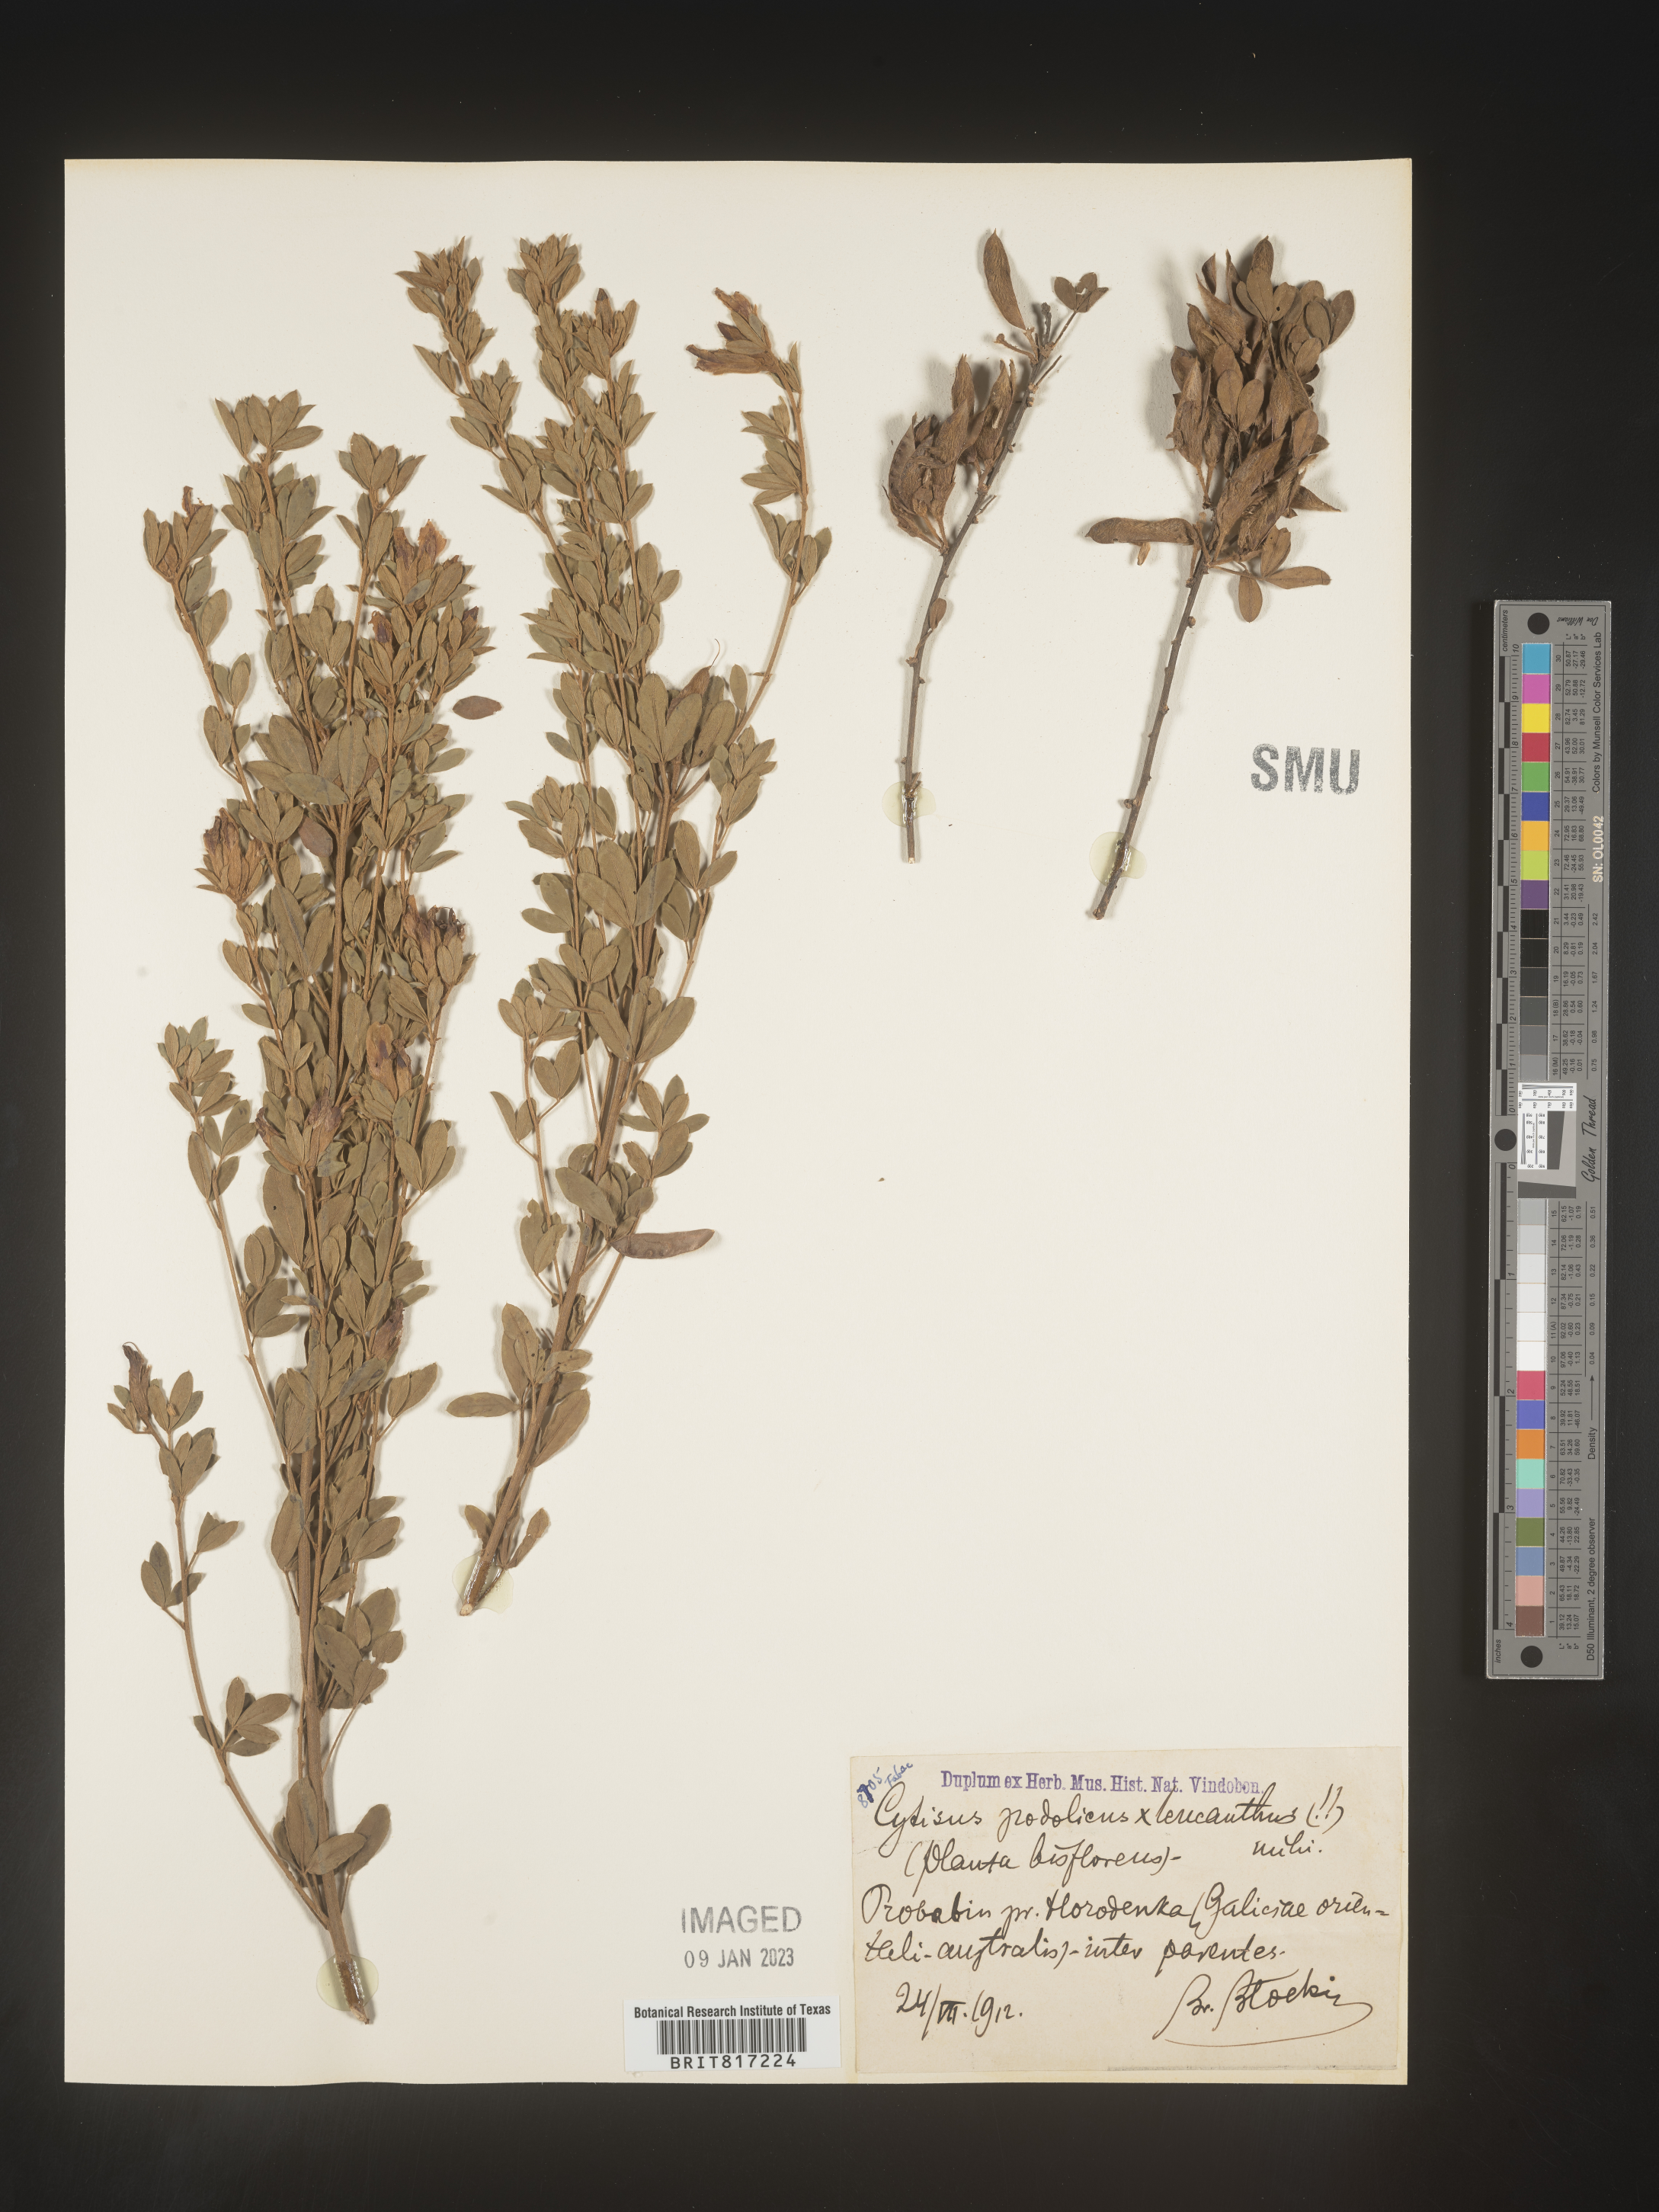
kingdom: Plantae
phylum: Tracheophyta
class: Magnoliopsida
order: Fabales
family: Fabaceae
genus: Cytisus
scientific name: Cytisus
